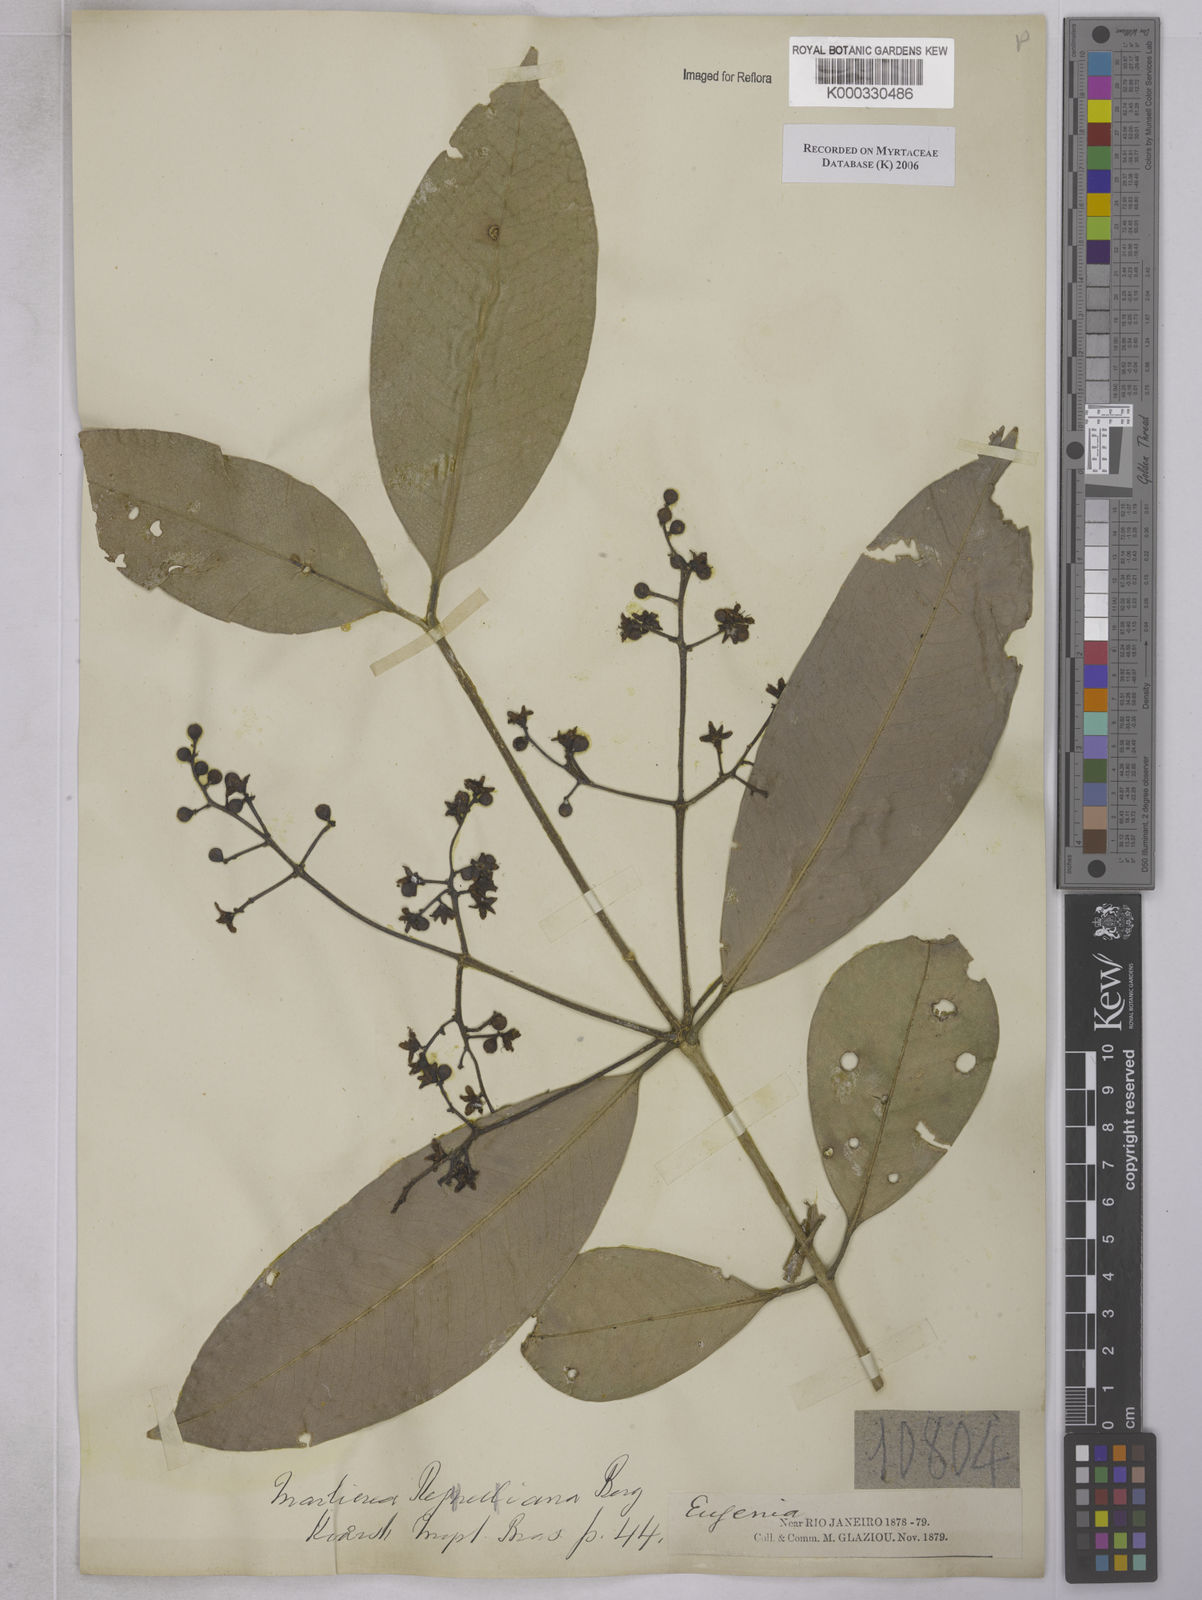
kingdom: Plantae
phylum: Tracheophyta
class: Magnoliopsida
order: Myrtales
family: Myrtaceae
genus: Myrcia
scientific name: Myrcia neoregeliana
